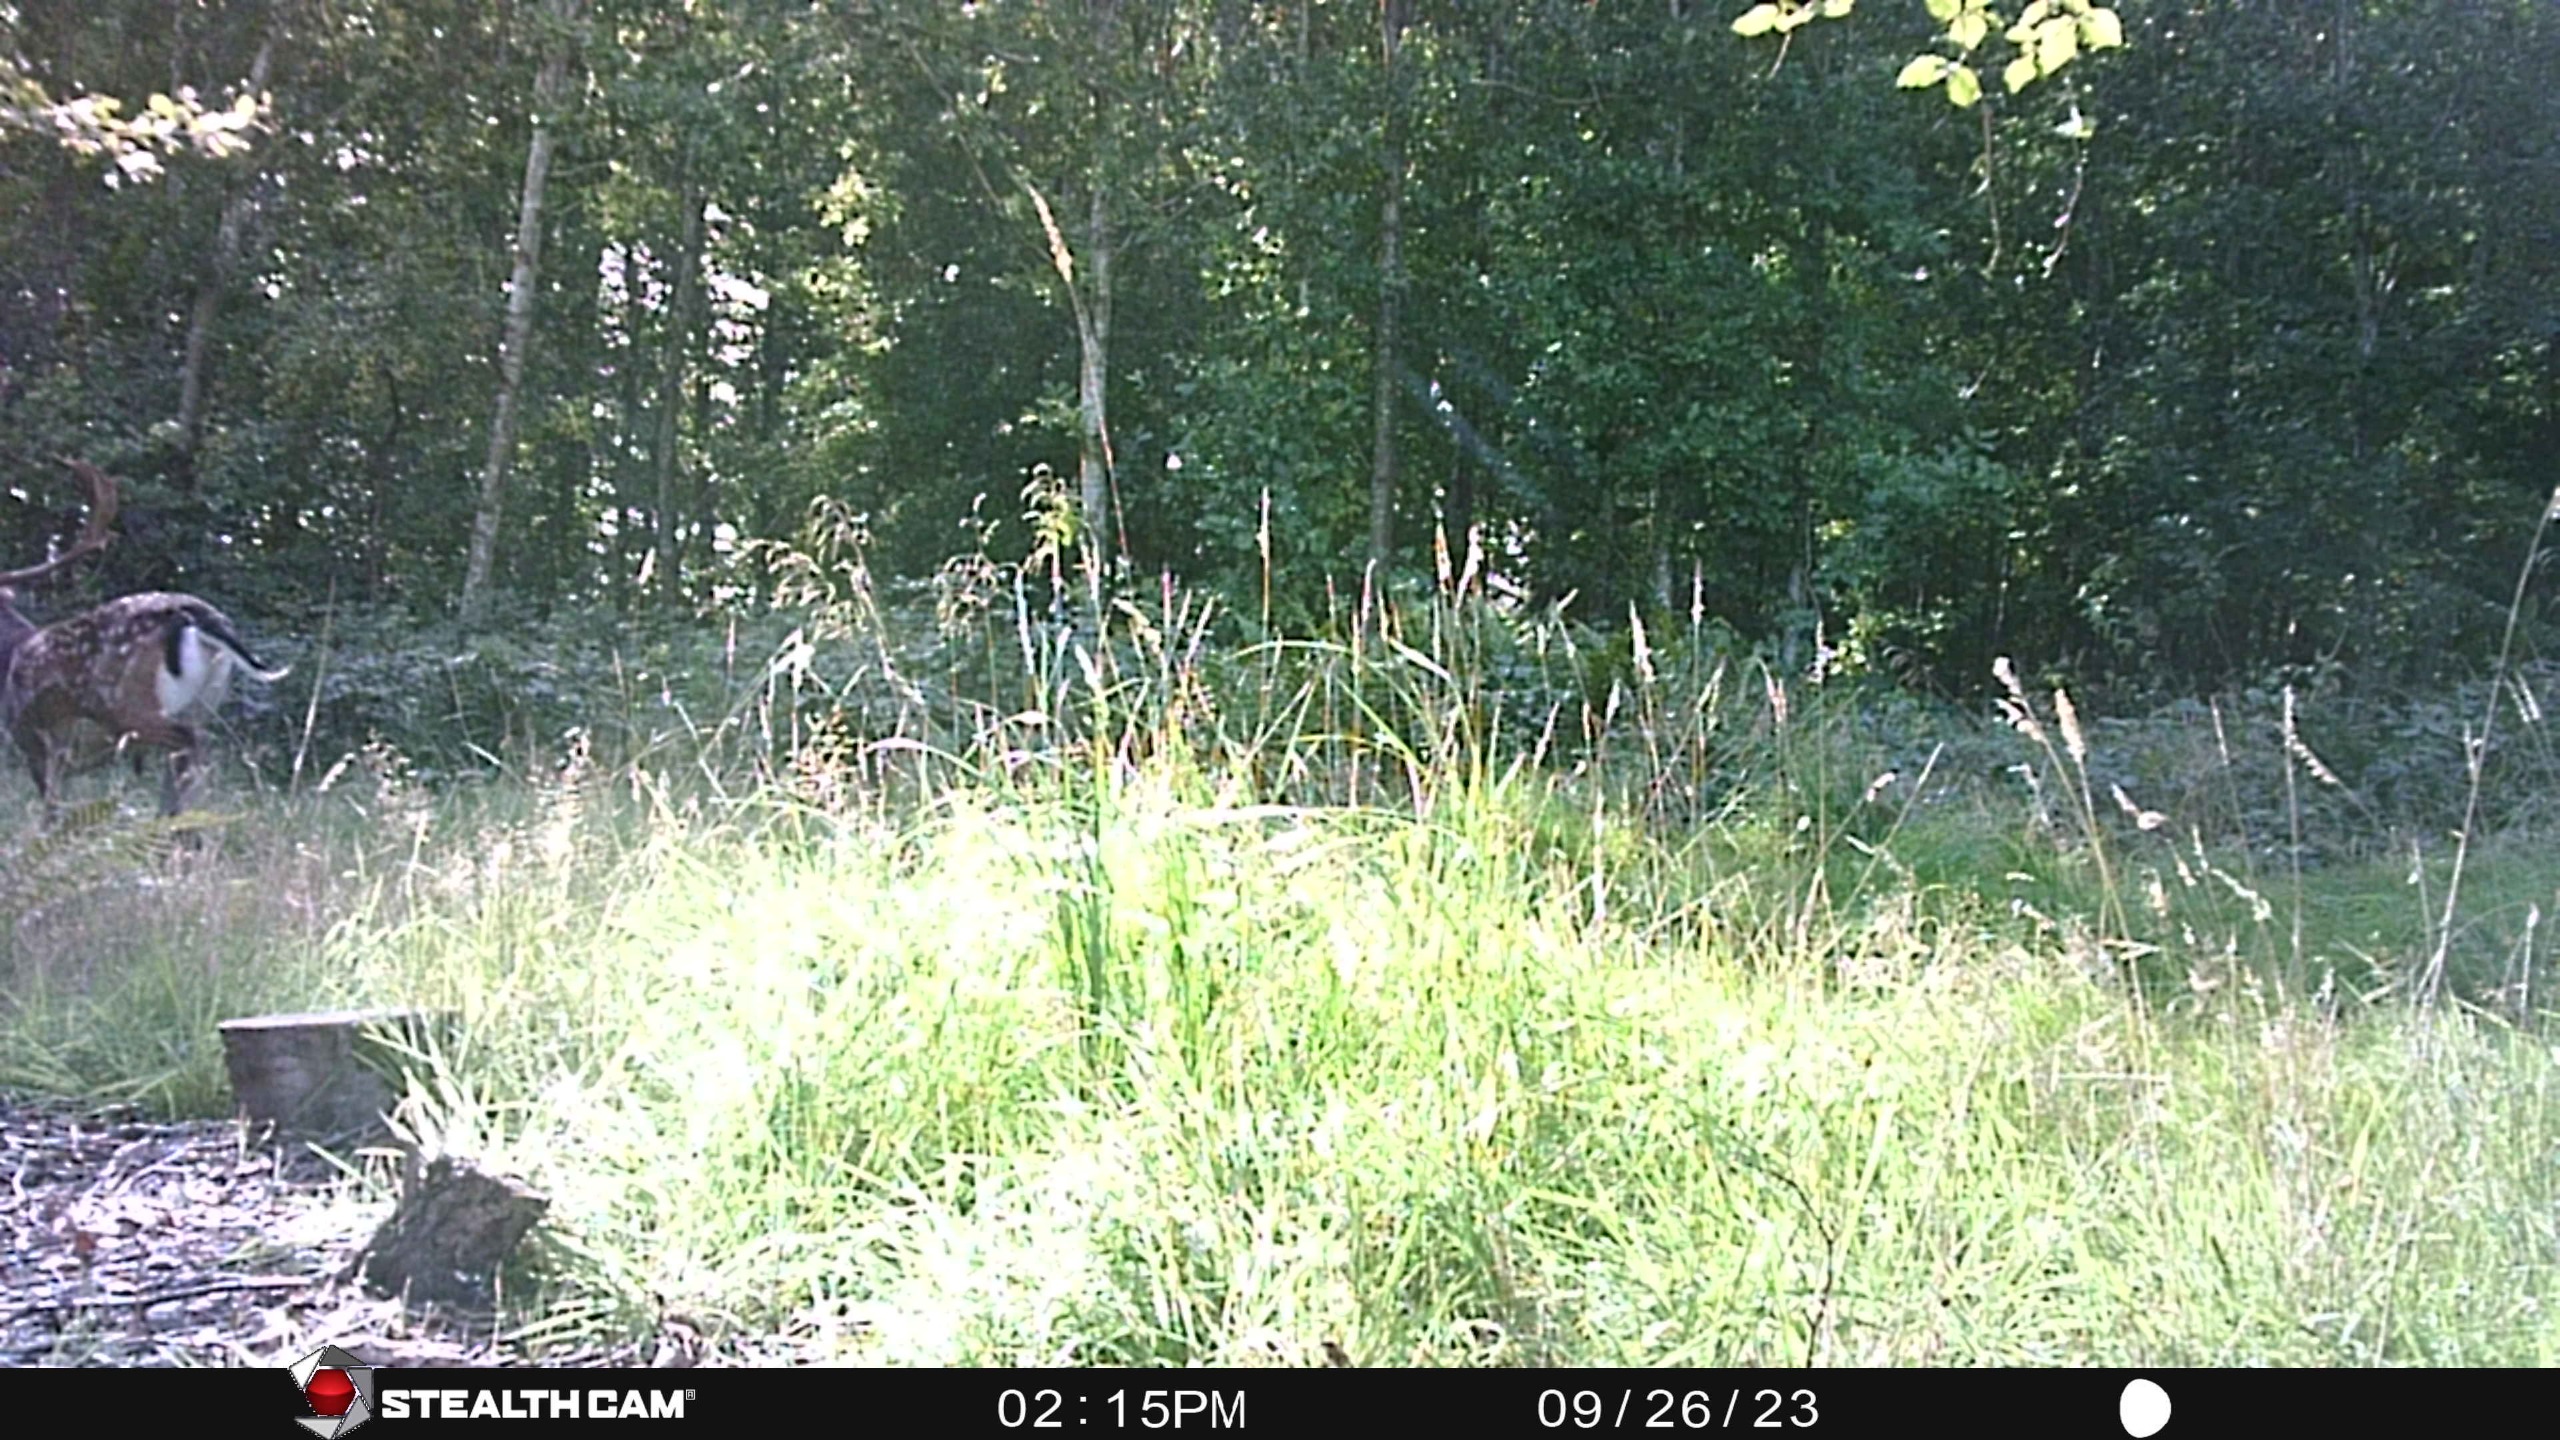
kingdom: Animalia
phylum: Chordata
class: Mammalia
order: Artiodactyla
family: Cervidae
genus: Dama
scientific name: Dama dama
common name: Dådyr
